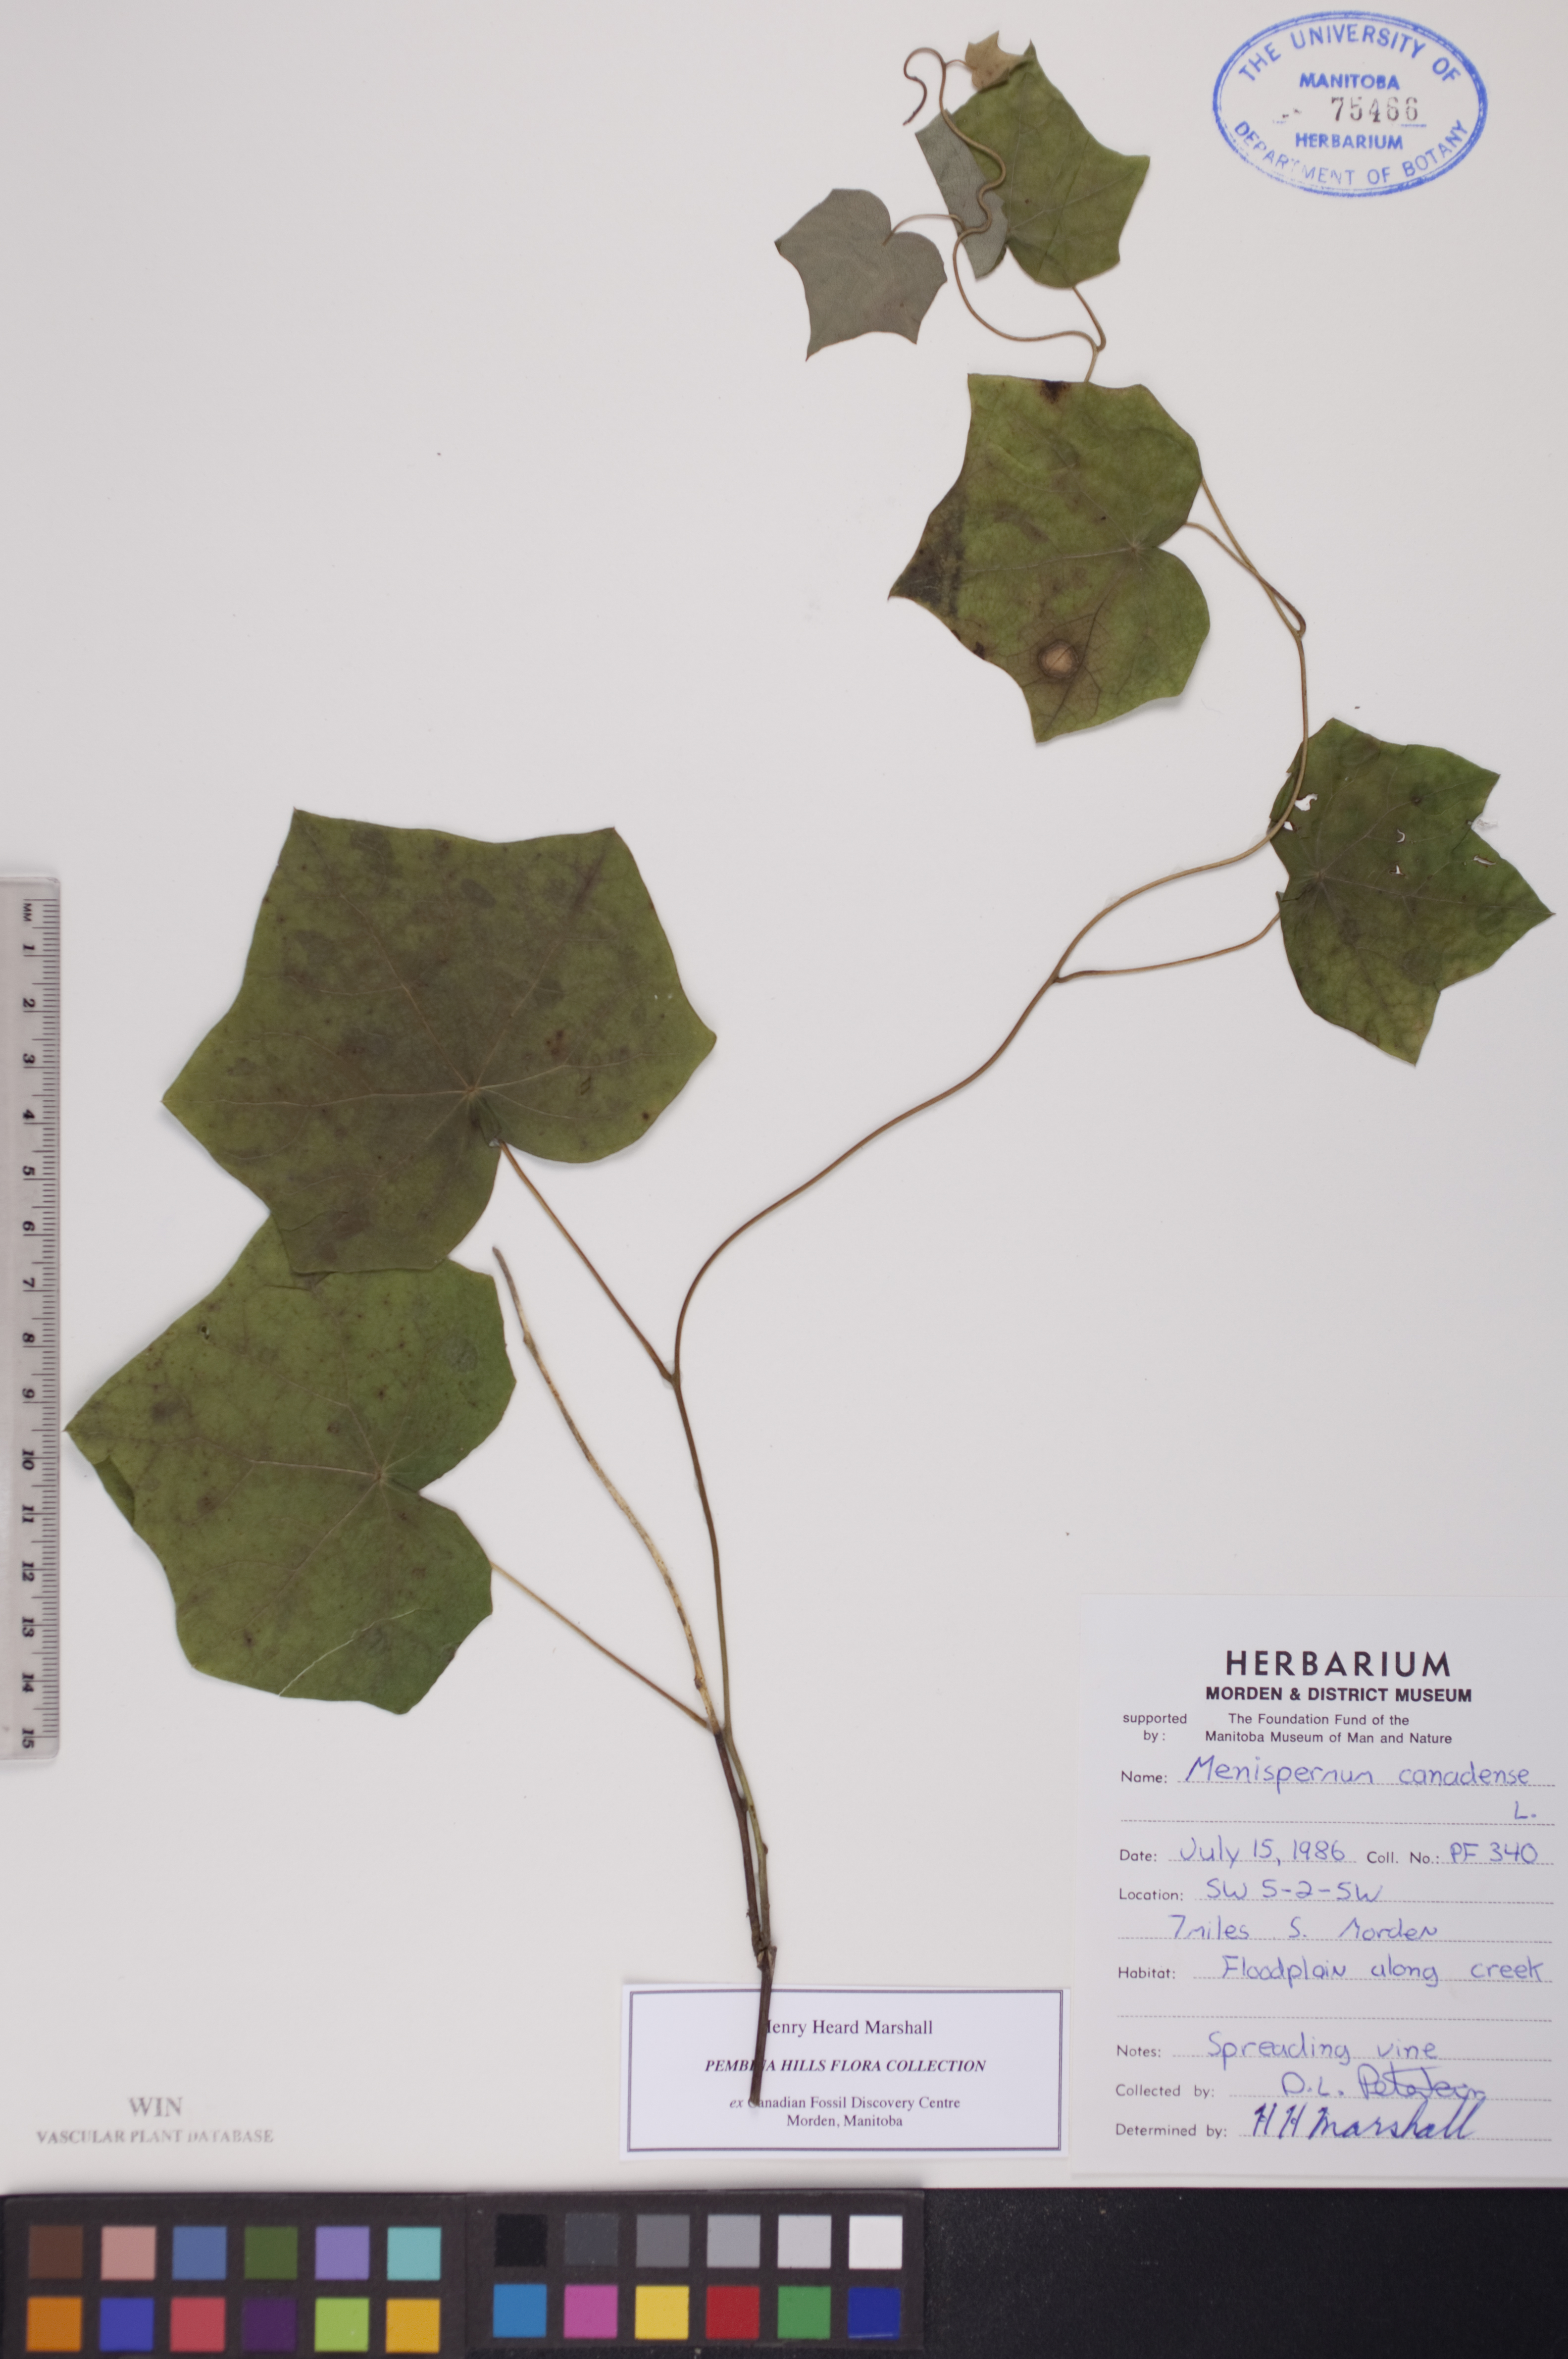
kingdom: Plantae
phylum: Tracheophyta
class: Magnoliopsida
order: Ranunculales
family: Menispermaceae
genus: Menispermum
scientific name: Menispermum canadense
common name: Moonseed
